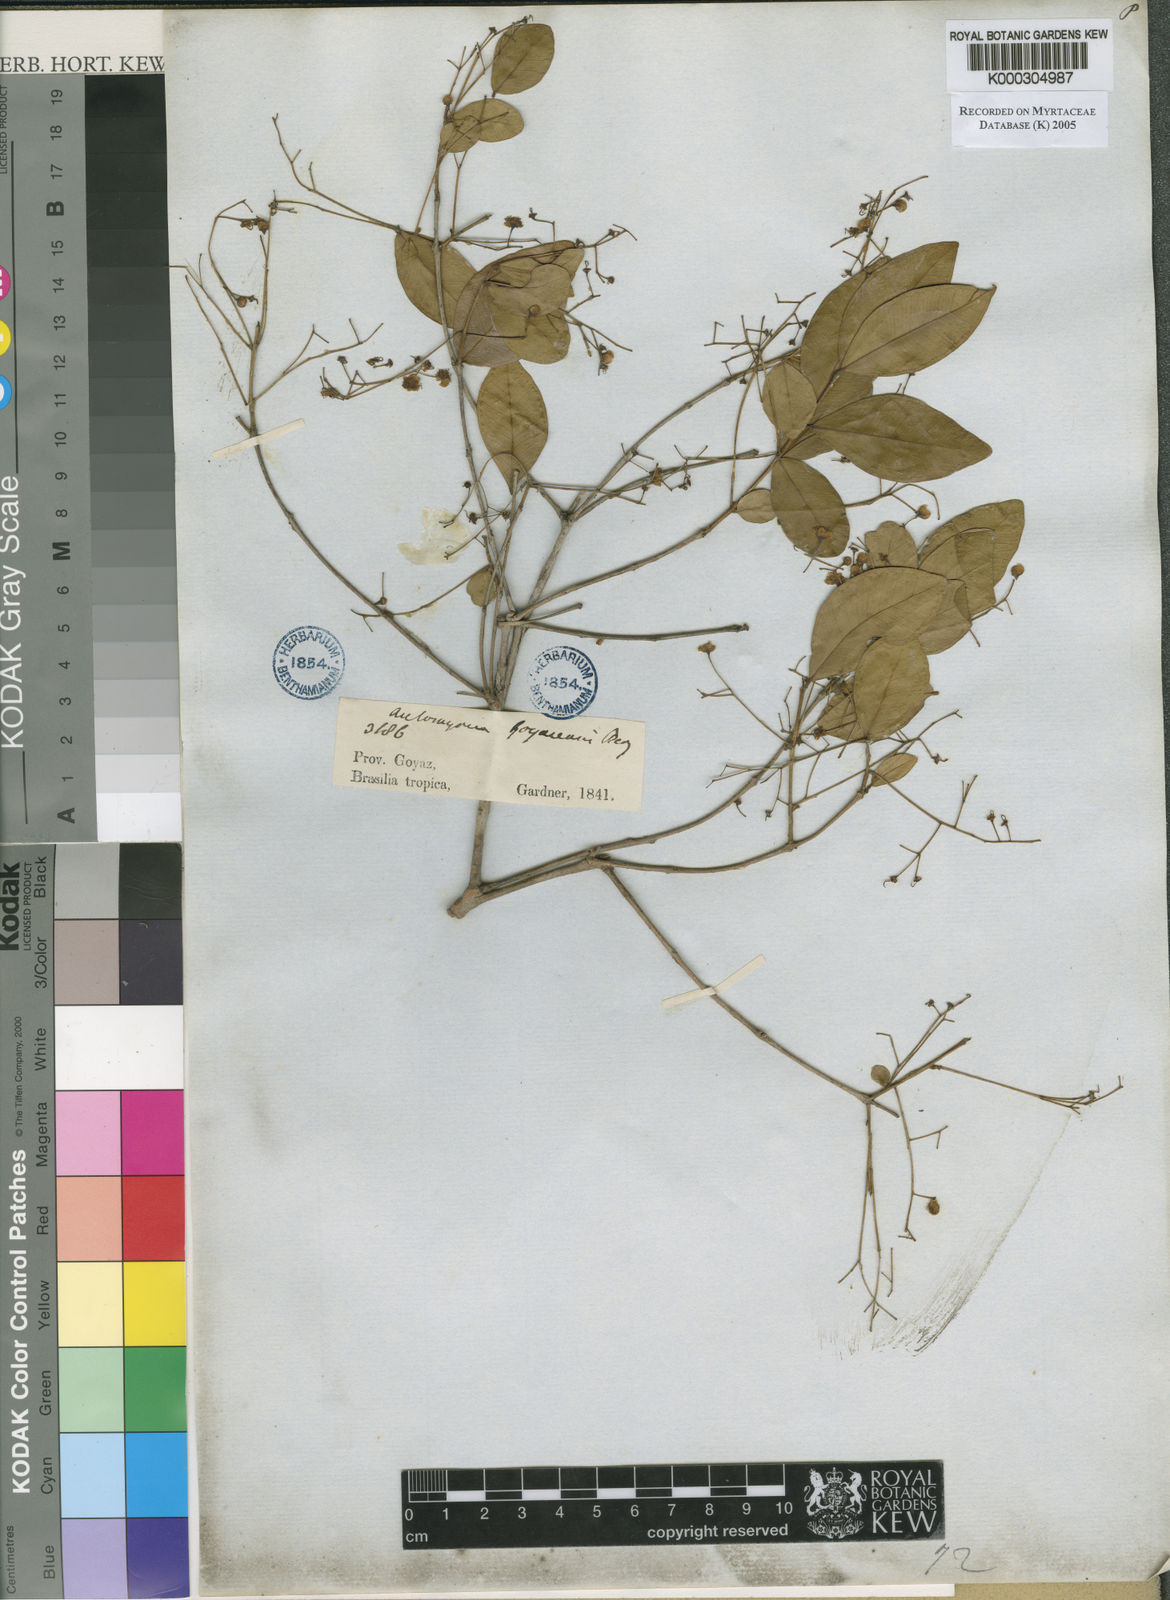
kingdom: Plantae
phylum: Tracheophyta
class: Magnoliopsida
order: Myrtales
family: Myrtaceae
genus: Myrcia
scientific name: Myrcia goyazensis
